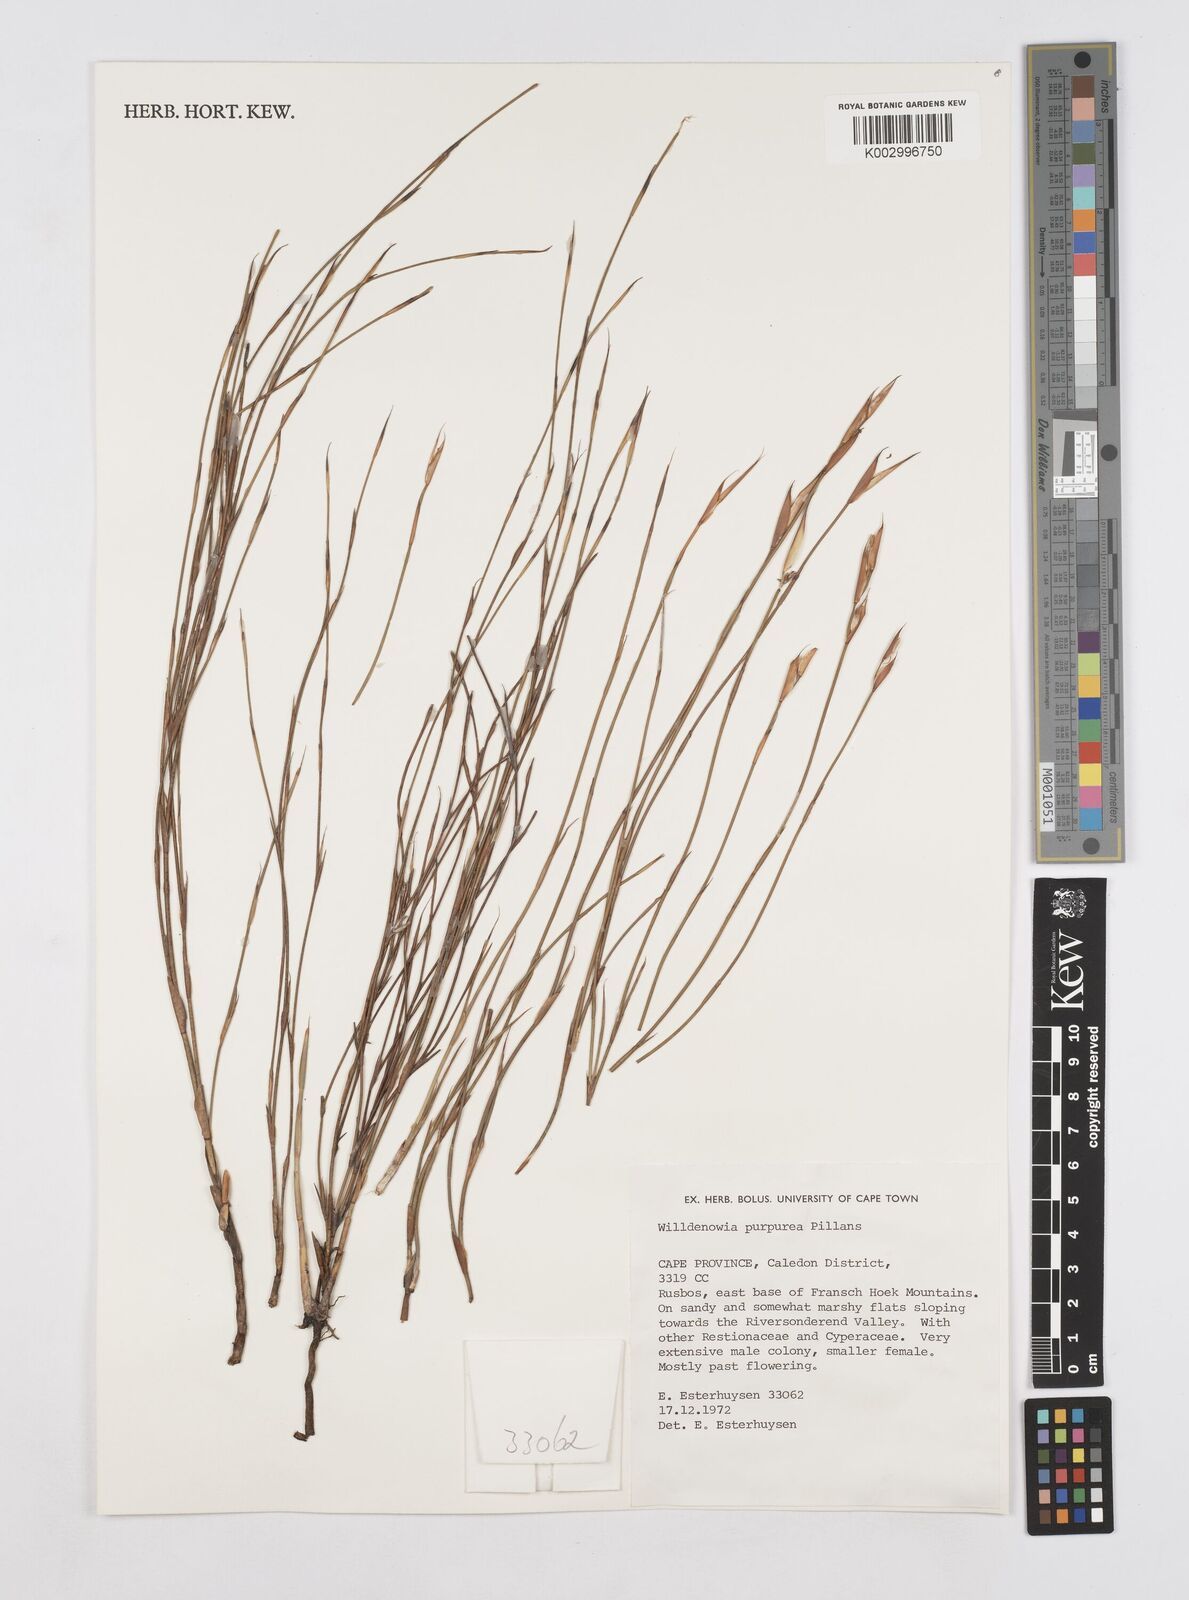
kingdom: Plantae
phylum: Tracheophyta
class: Liliopsida
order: Poales
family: Restionaceae
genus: Willdenowia
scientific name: Willdenowia purpurea
